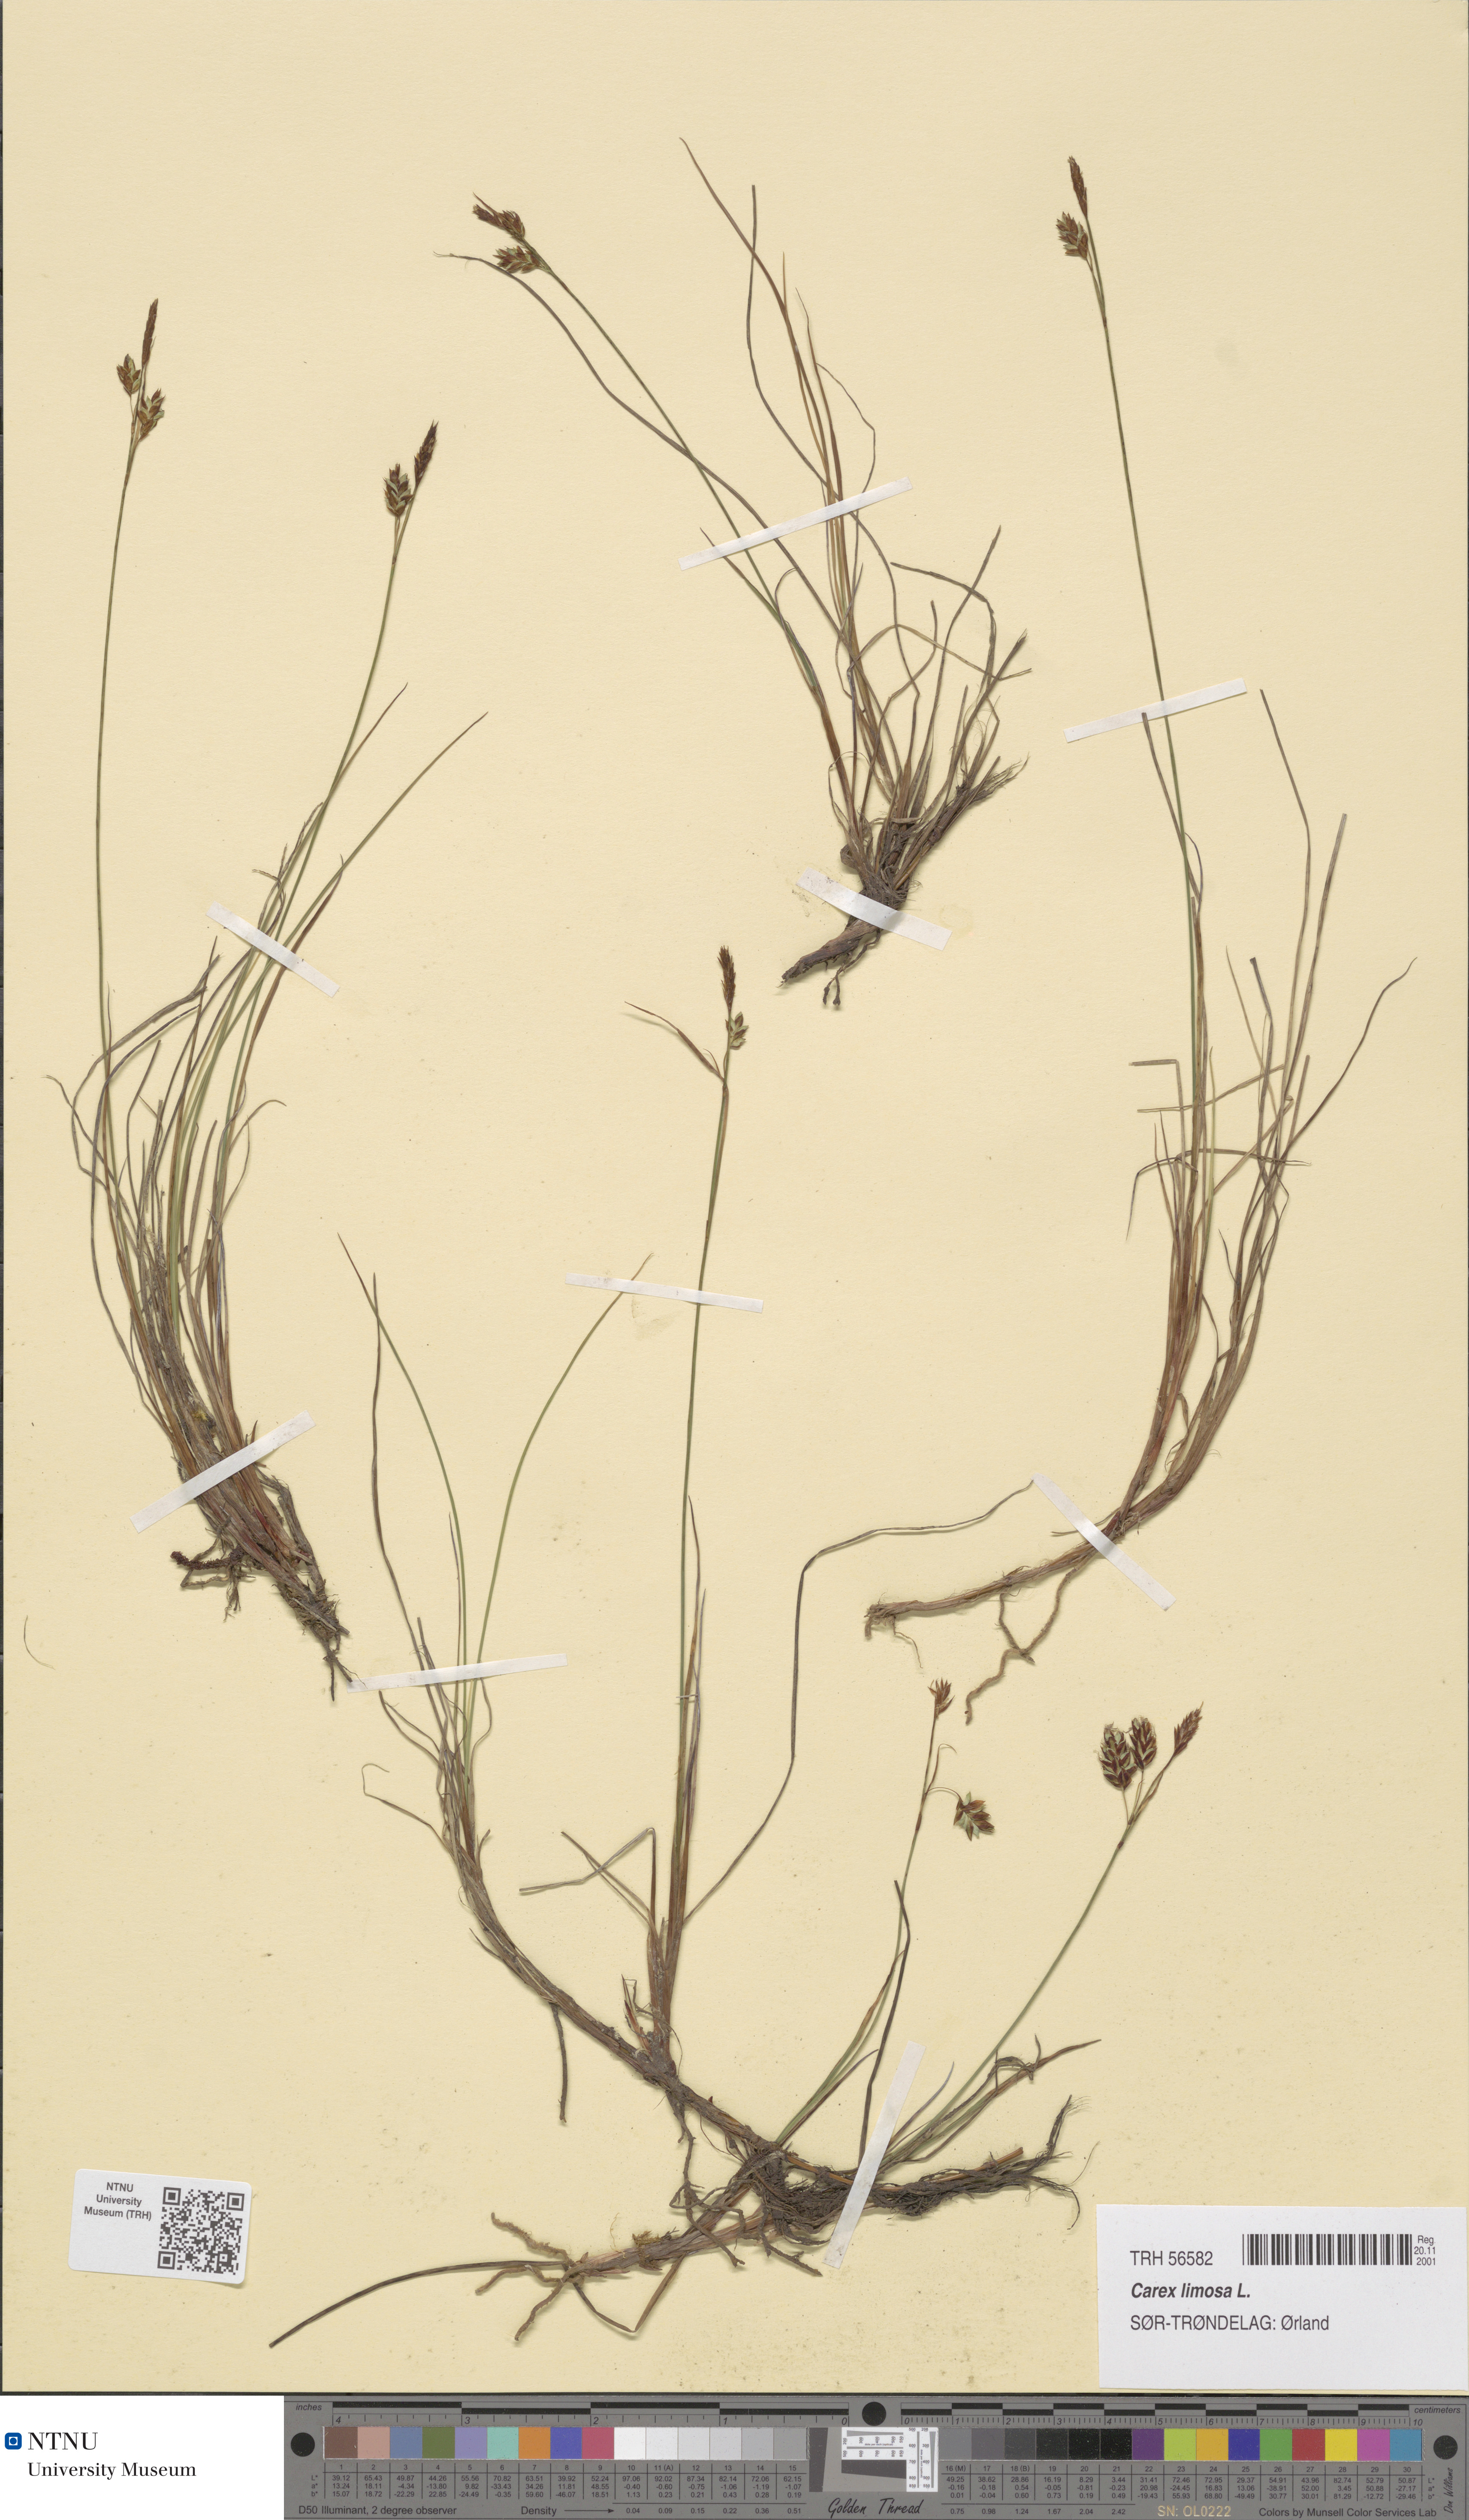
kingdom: Plantae
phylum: Tracheophyta
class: Liliopsida
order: Poales
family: Cyperaceae
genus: Carex
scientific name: Carex limosa
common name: Bog sedge
